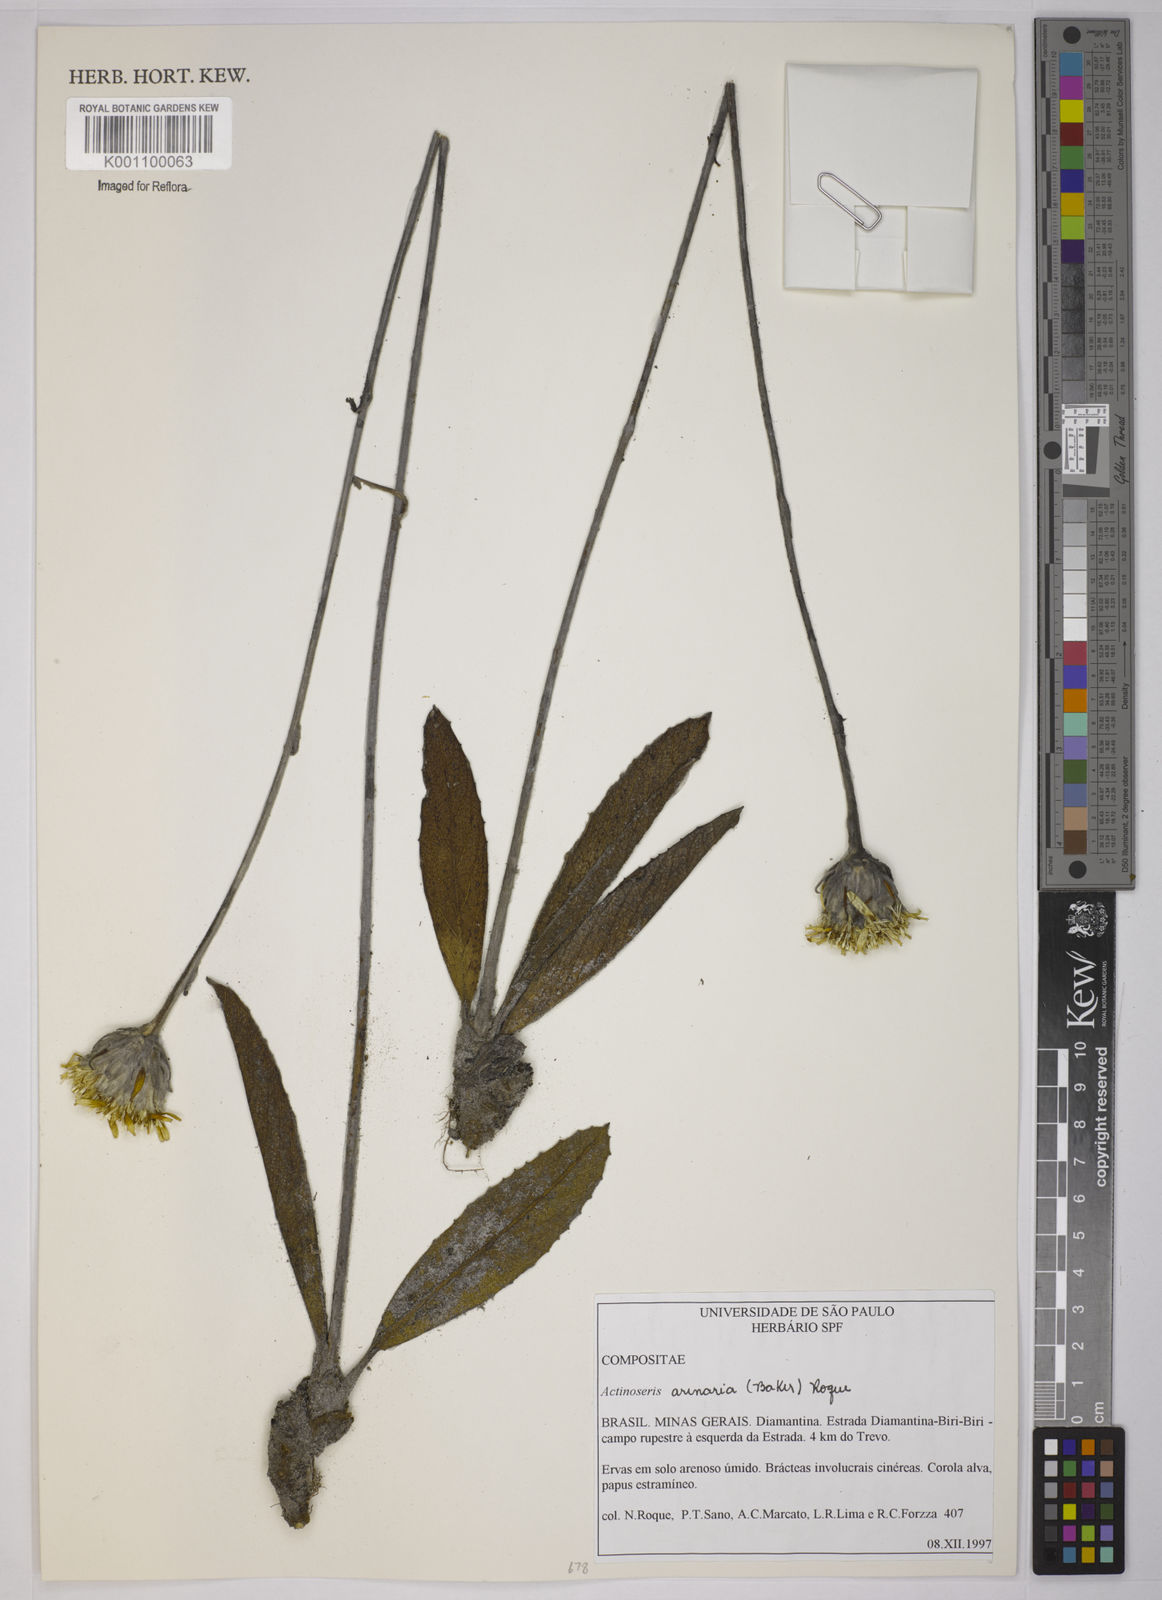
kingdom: Plantae
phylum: Tracheophyta
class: Magnoliopsida
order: Asterales
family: Asteraceae
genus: Richterago
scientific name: Richterago arenaria
